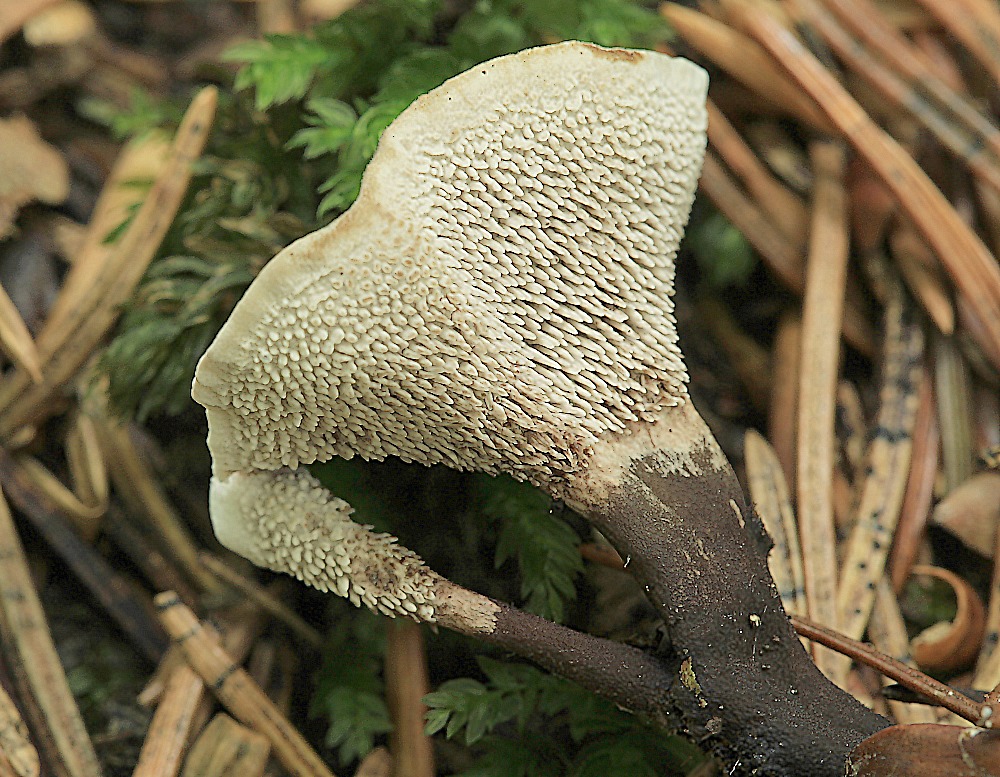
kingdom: Fungi
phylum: Basidiomycota
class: Agaricomycetes
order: Thelephorales
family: Bankeraceae
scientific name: Bankeraceae
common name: duftpigsvampfamilien
